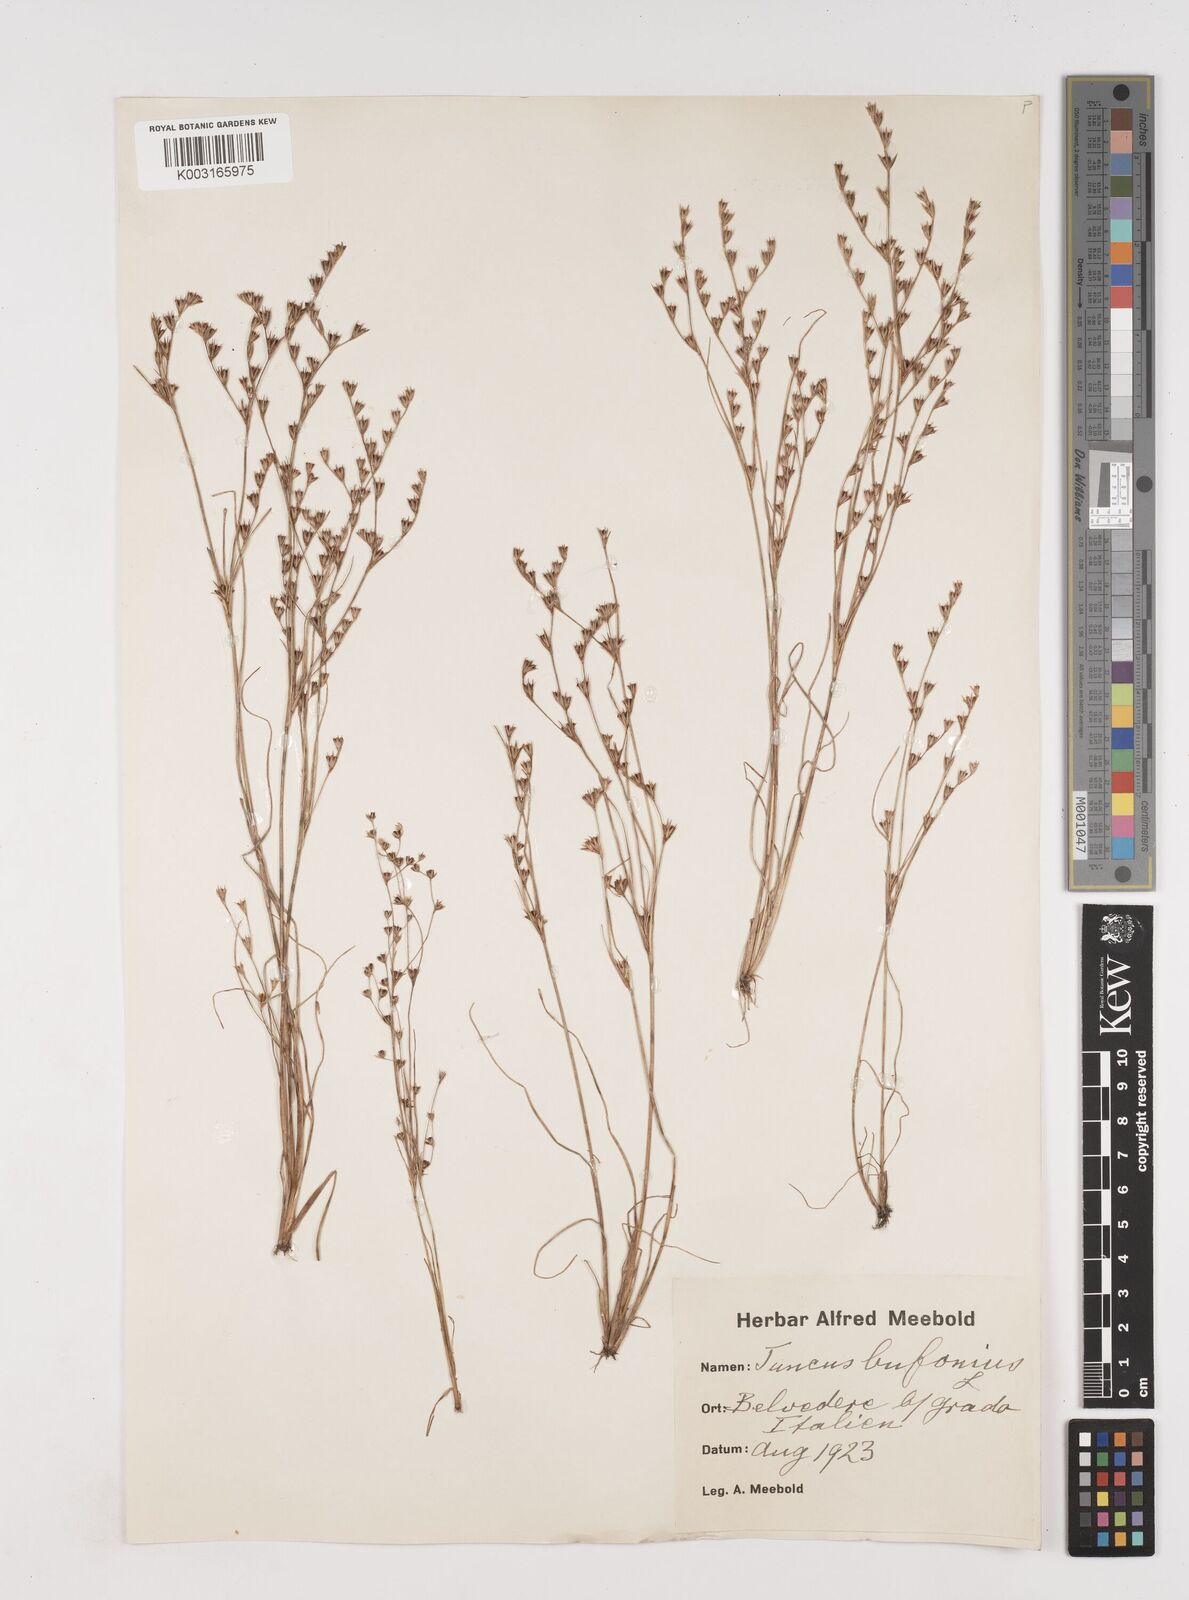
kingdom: Plantae
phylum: Tracheophyta
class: Liliopsida
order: Poales
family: Juncaceae
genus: Juncus
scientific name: Juncus bufonius
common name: Toad rush
